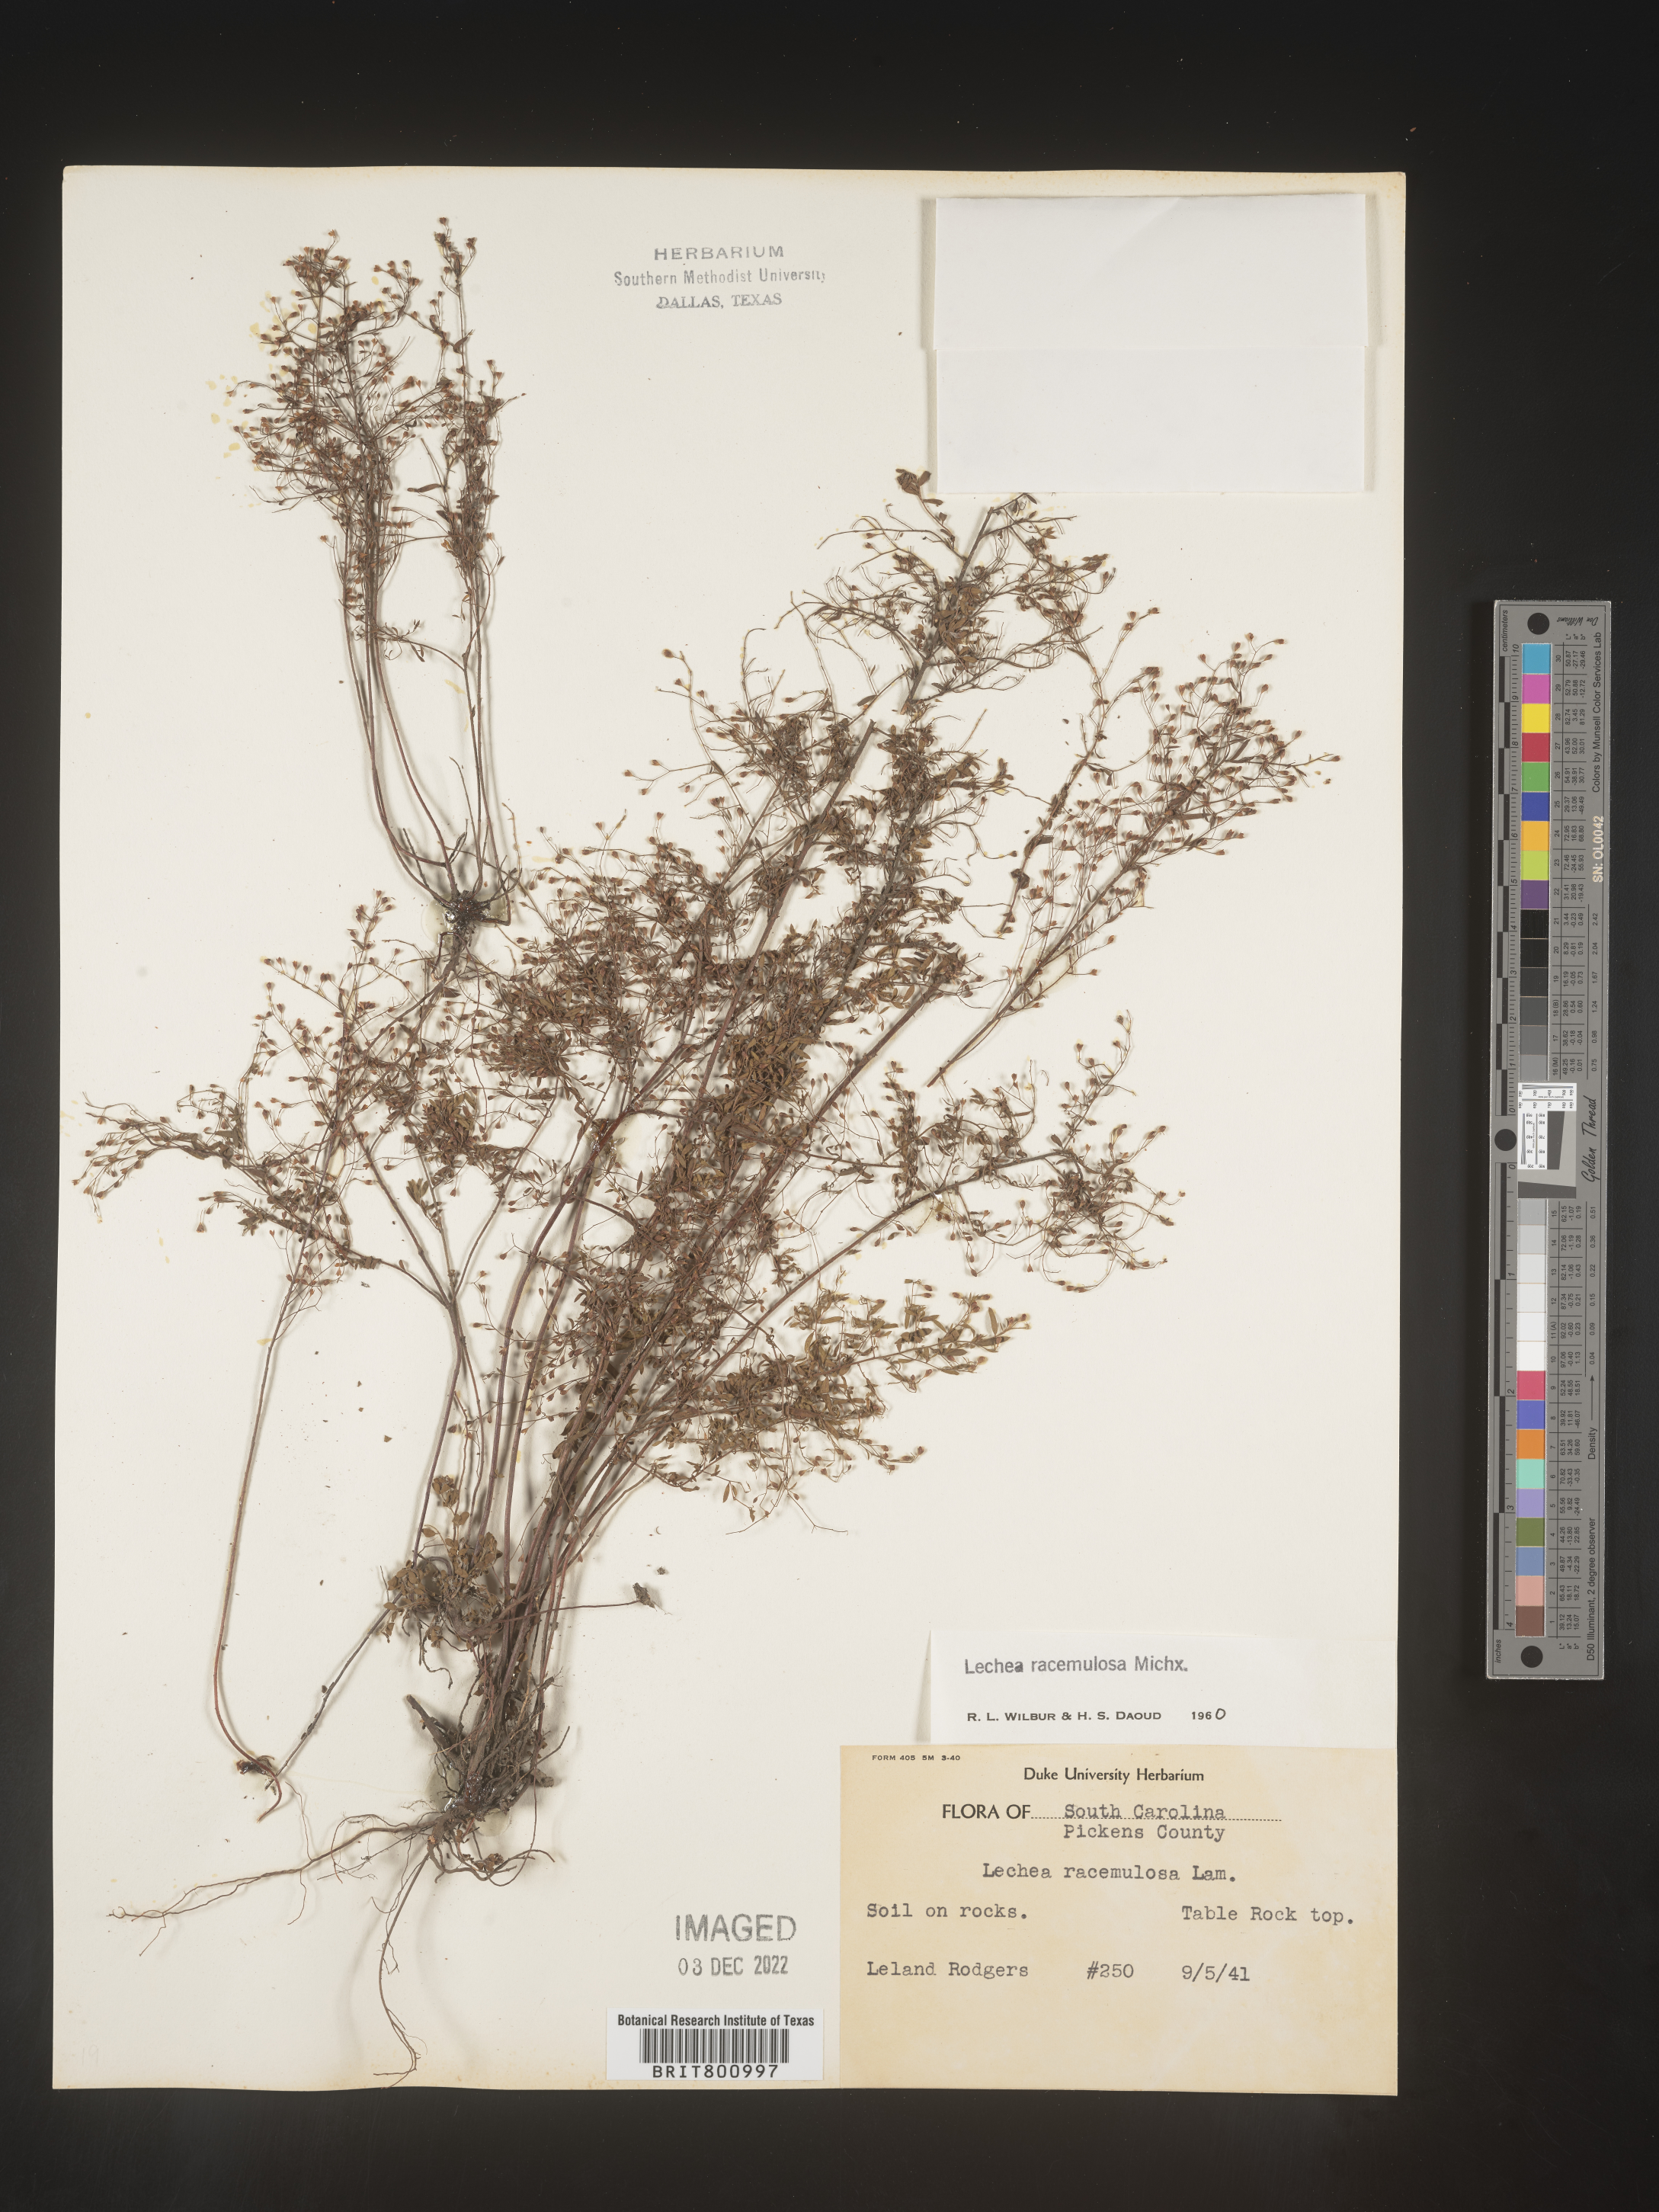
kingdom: Plantae
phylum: Tracheophyta
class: Magnoliopsida
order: Malvales
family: Cistaceae
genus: Lechea
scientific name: Lechea racemulosa
